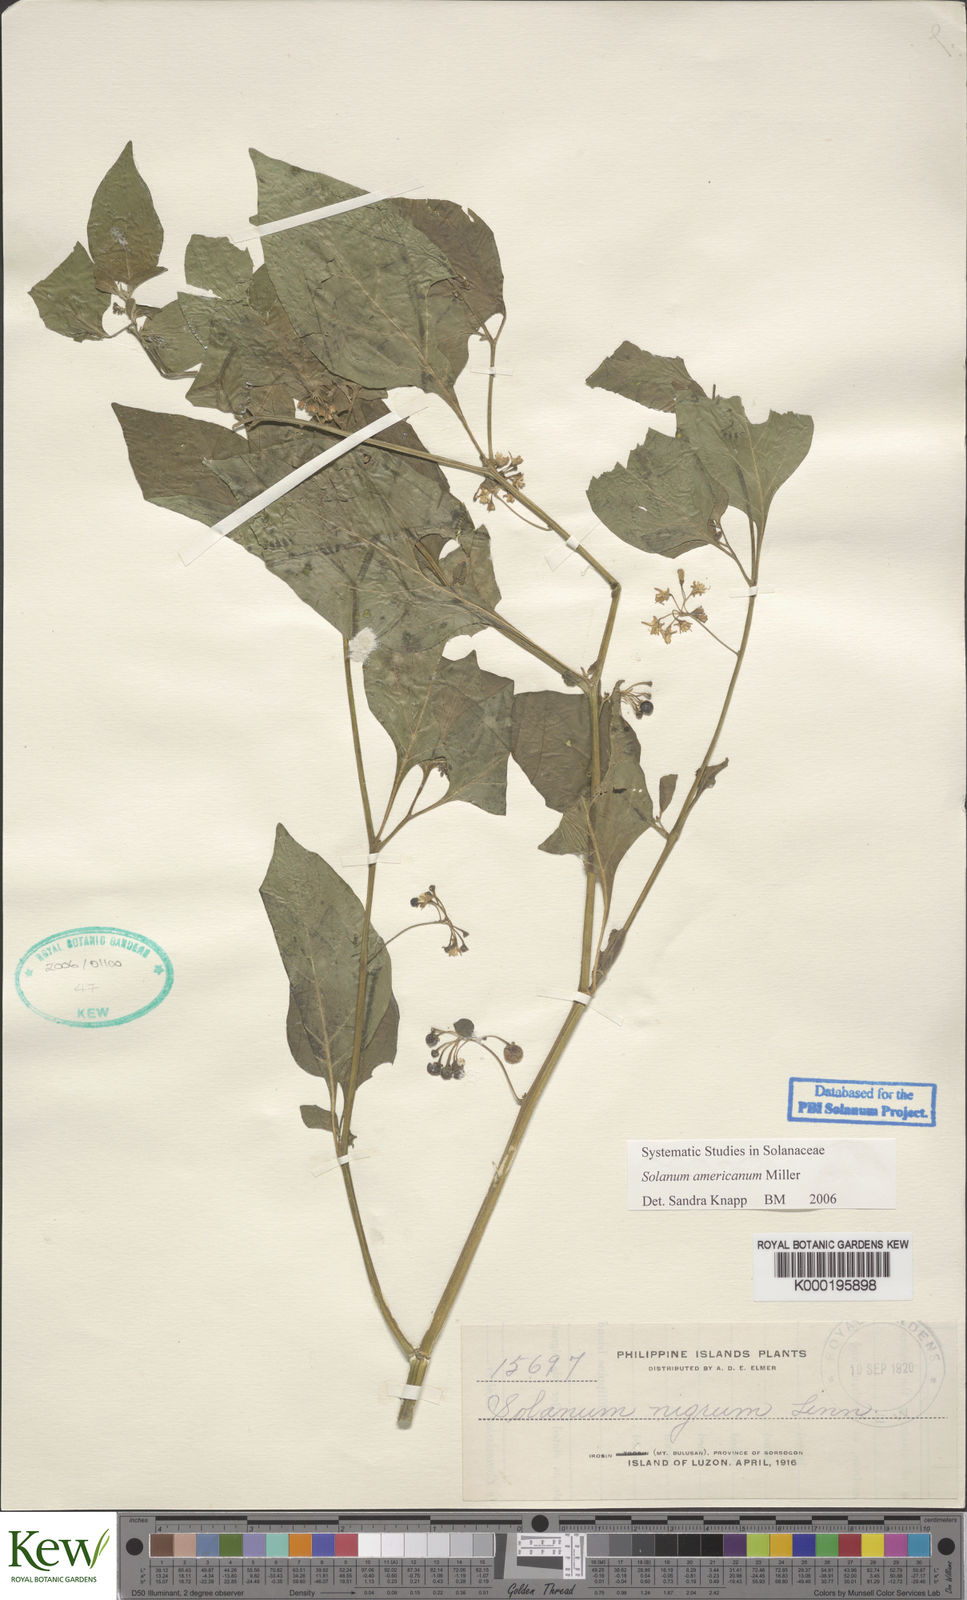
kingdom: Plantae
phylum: Tracheophyta
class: Magnoliopsida
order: Solanales
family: Solanaceae
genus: Solanum
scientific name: Solanum americanum
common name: American black nightshade
